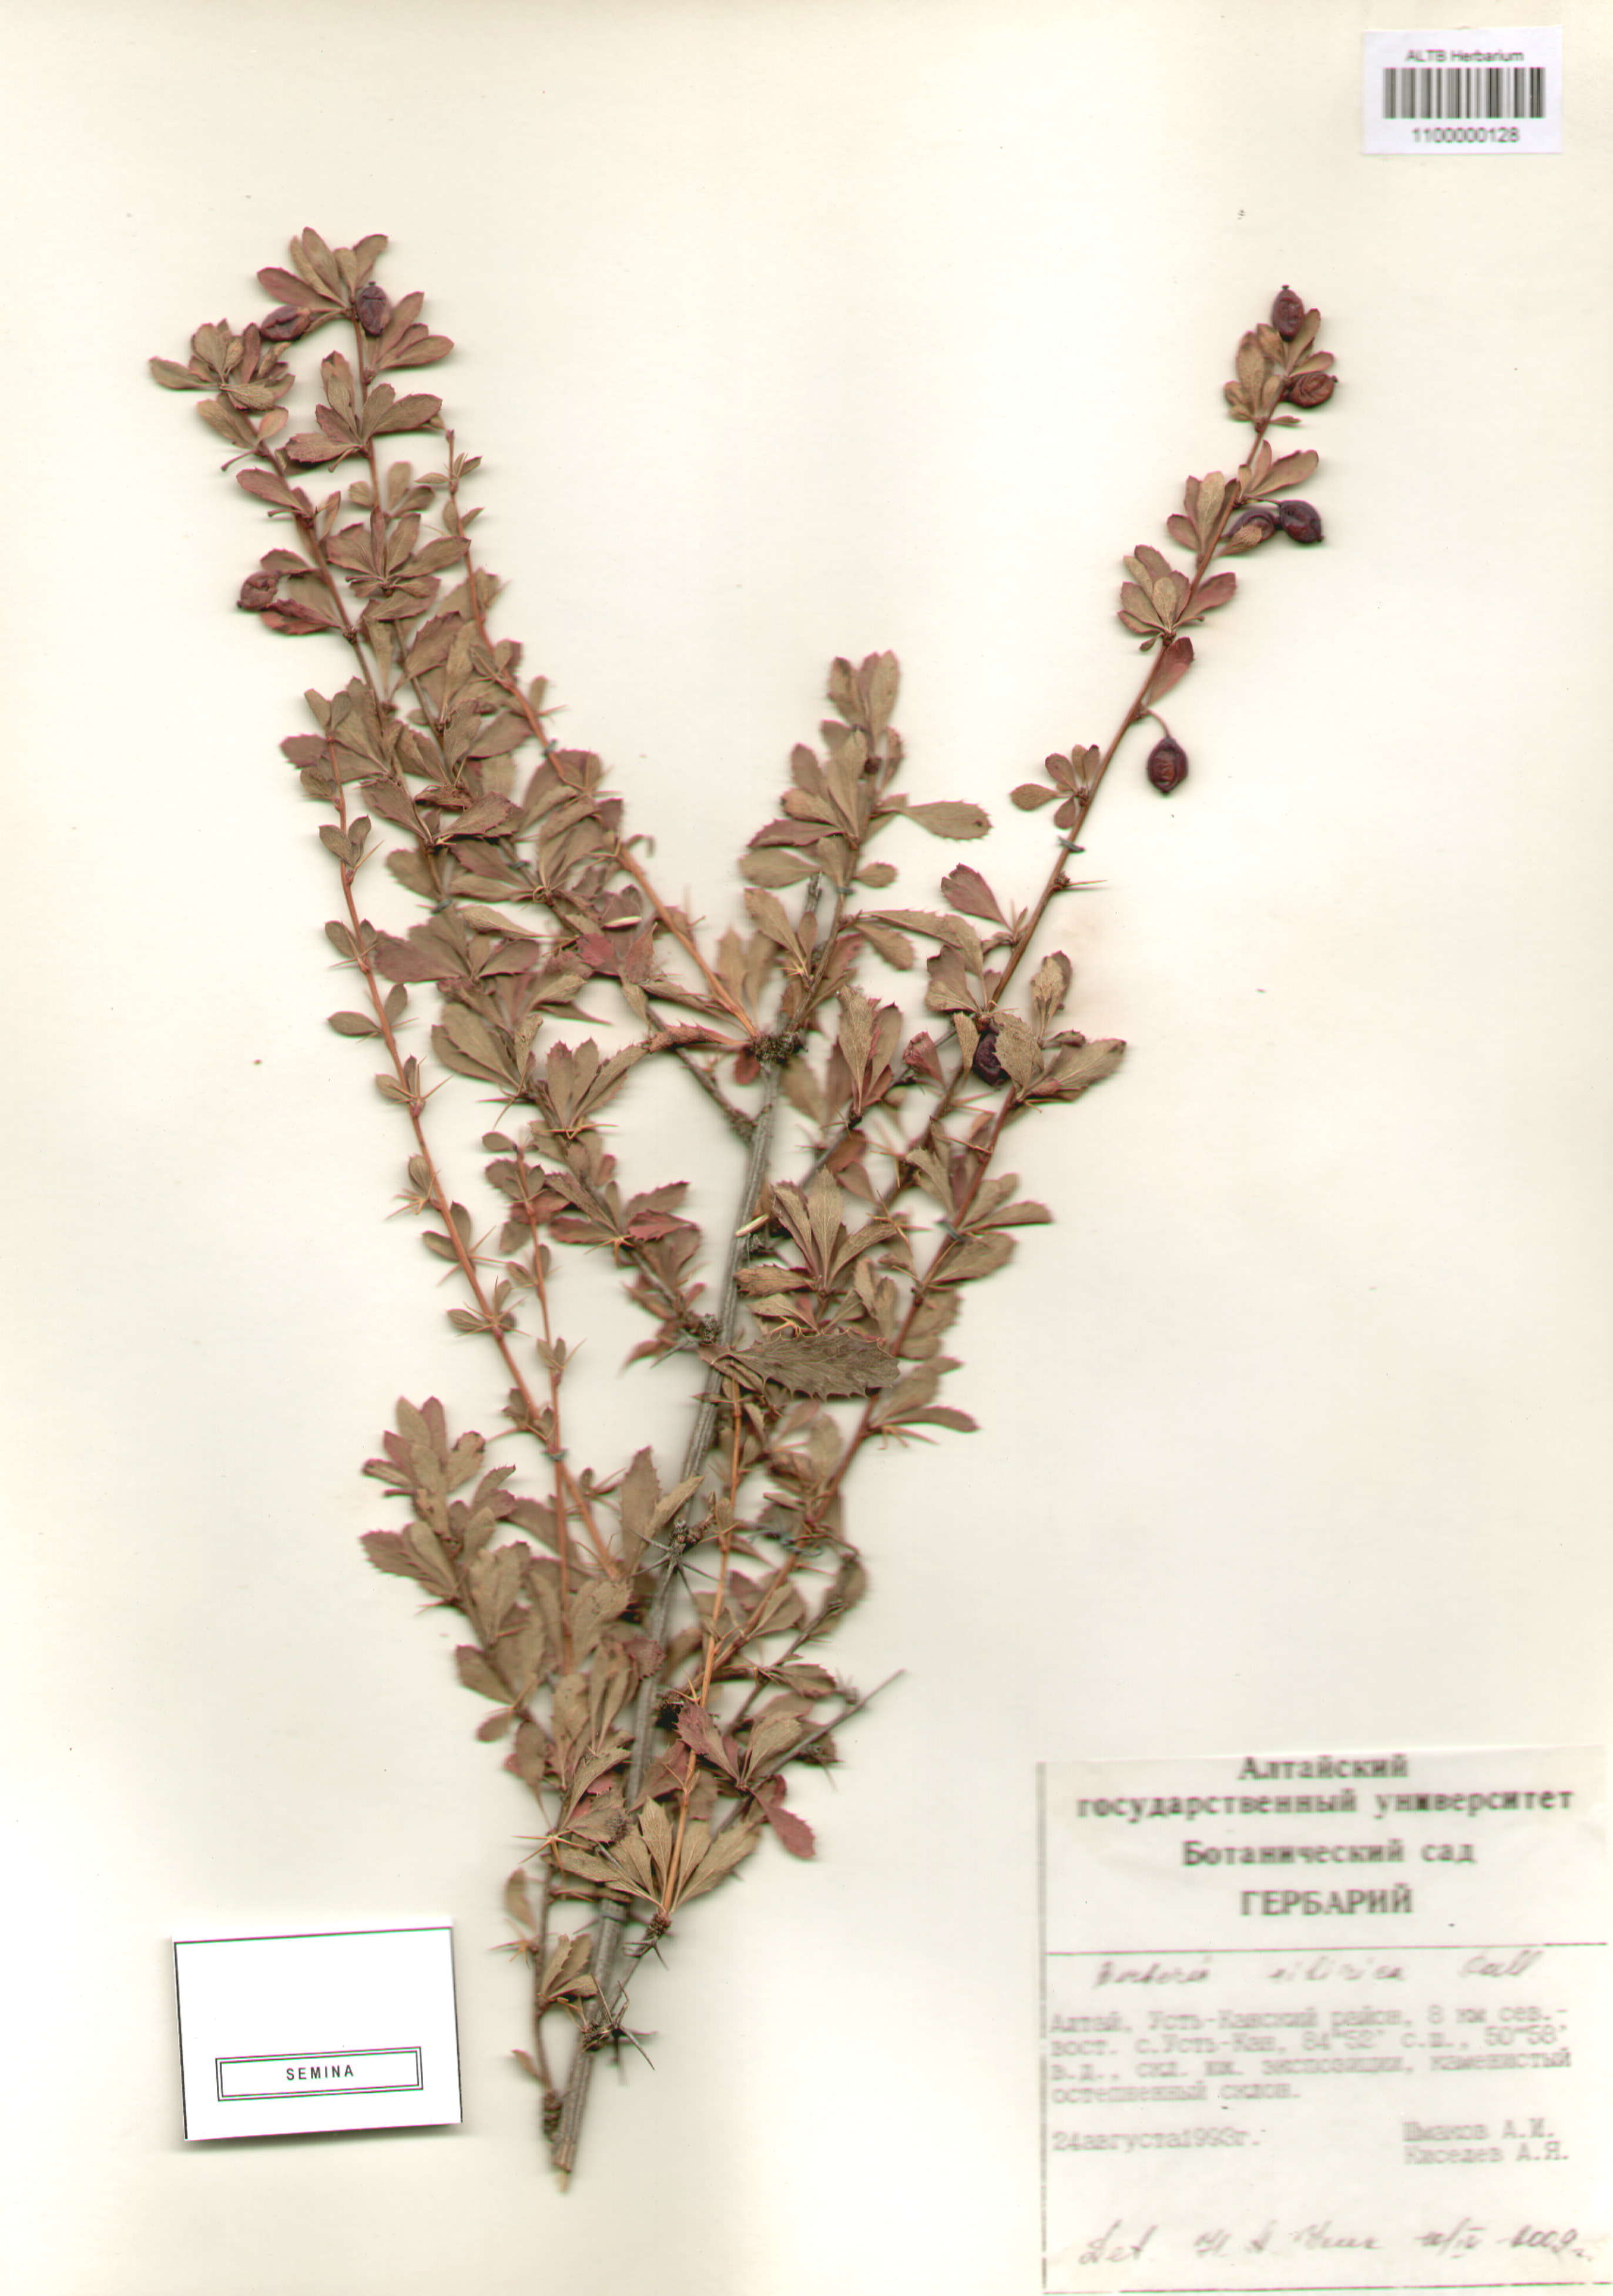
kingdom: Plantae
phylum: Tracheophyta
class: Magnoliopsida
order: Ranunculales
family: Berberidaceae
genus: Berberis
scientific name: Berberis sibirica
